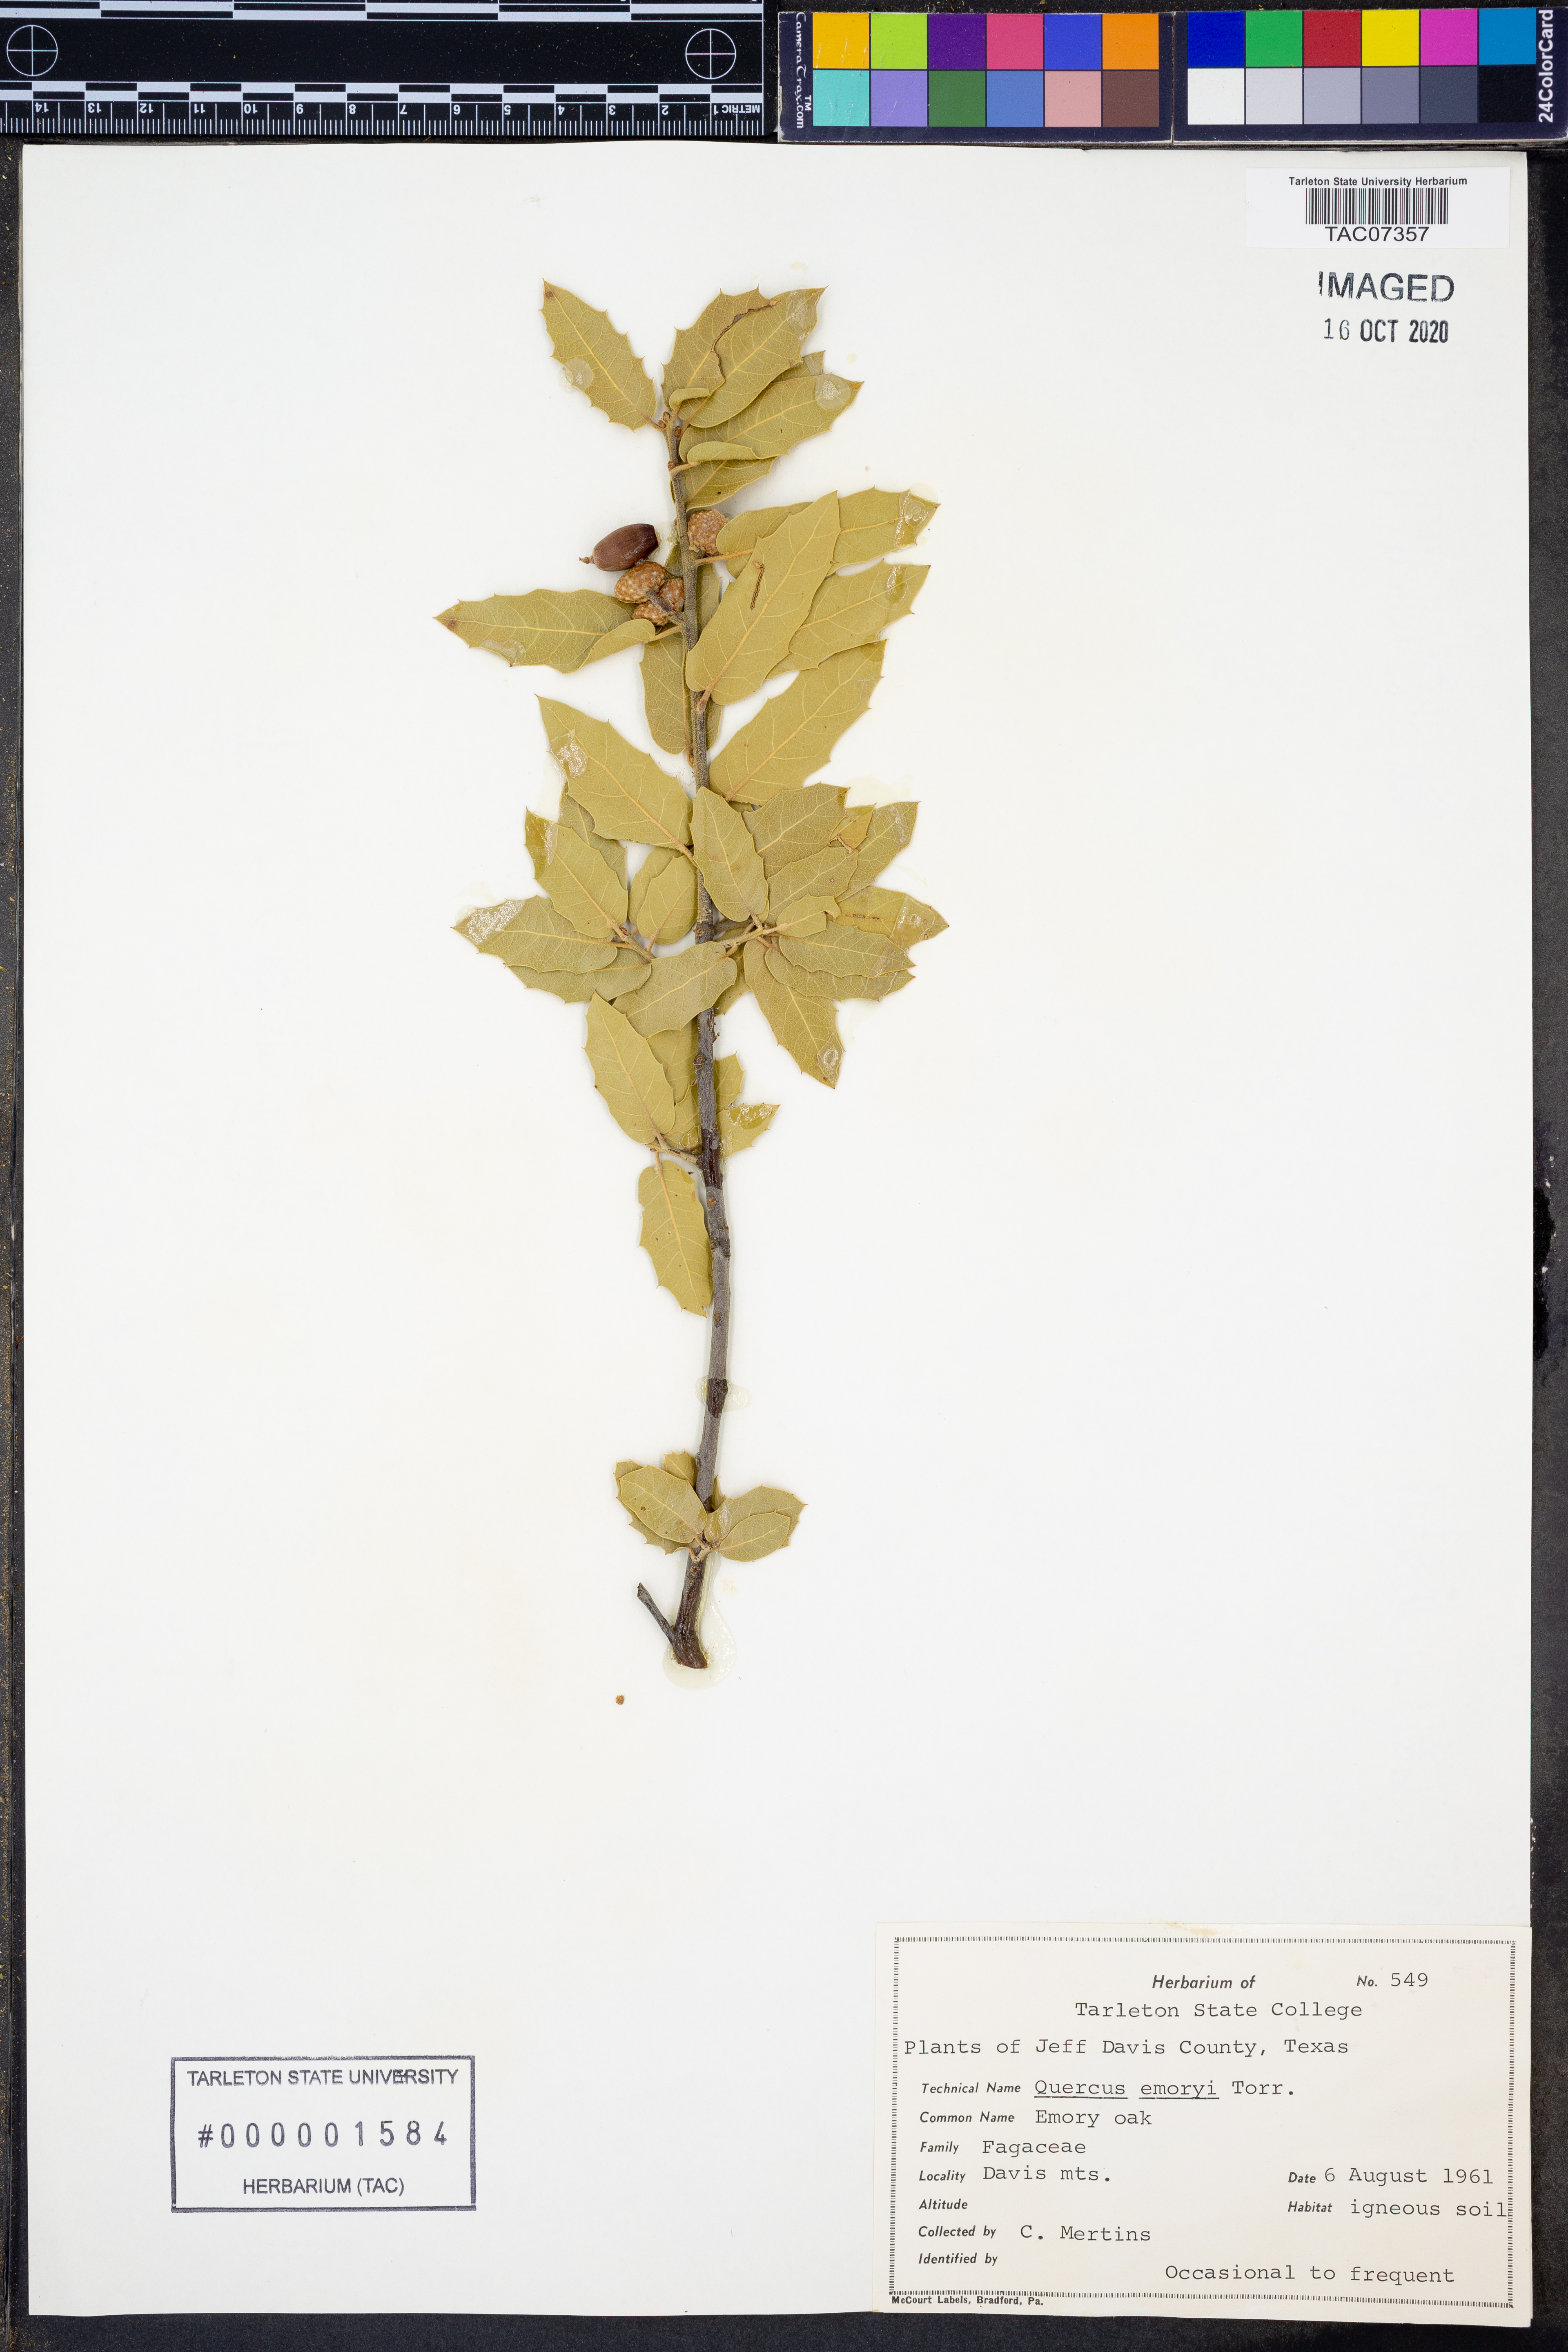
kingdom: Plantae
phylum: Tracheophyta
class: Magnoliopsida
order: Fagales
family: Fagaceae
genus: Quercus
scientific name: Quercus emoryi
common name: Emory oak
